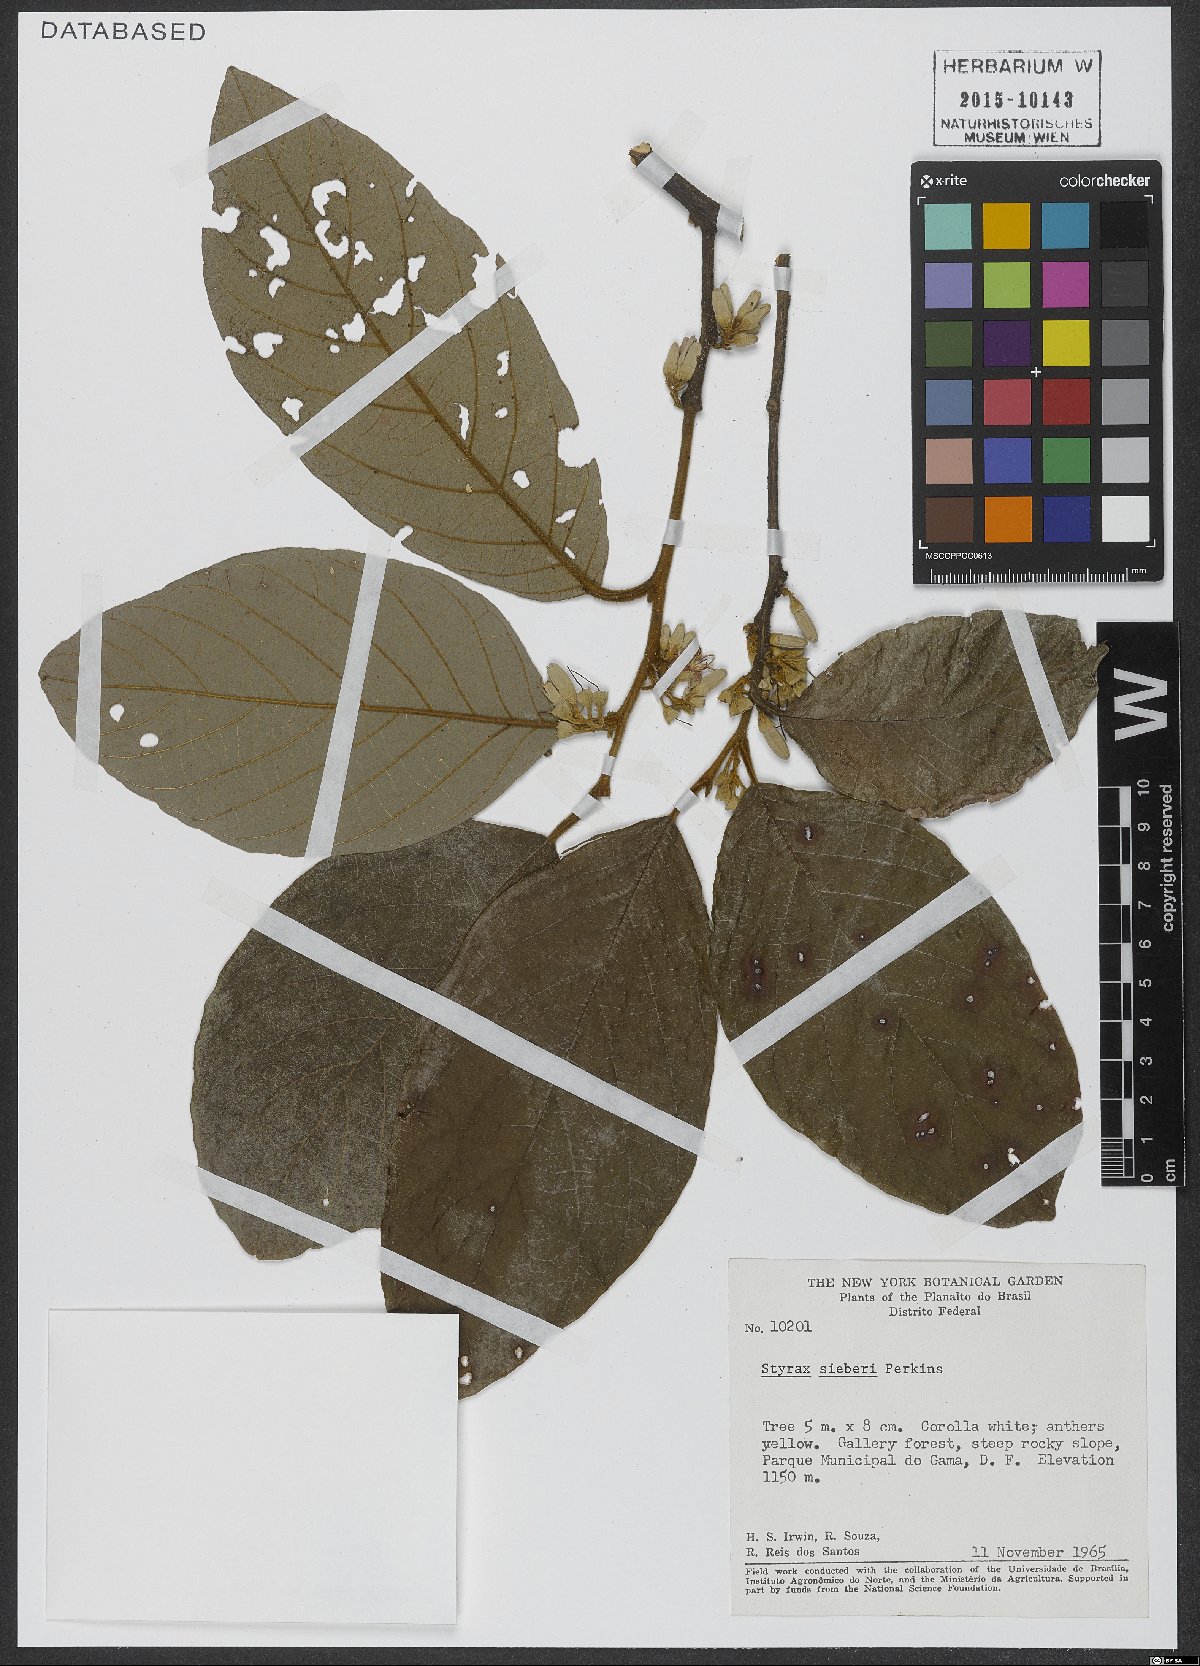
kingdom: Plantae
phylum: Tracheophyta
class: Magnoliopsida
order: Ericales
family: Styracaceae
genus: Styrax
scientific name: Styrax sieberi
